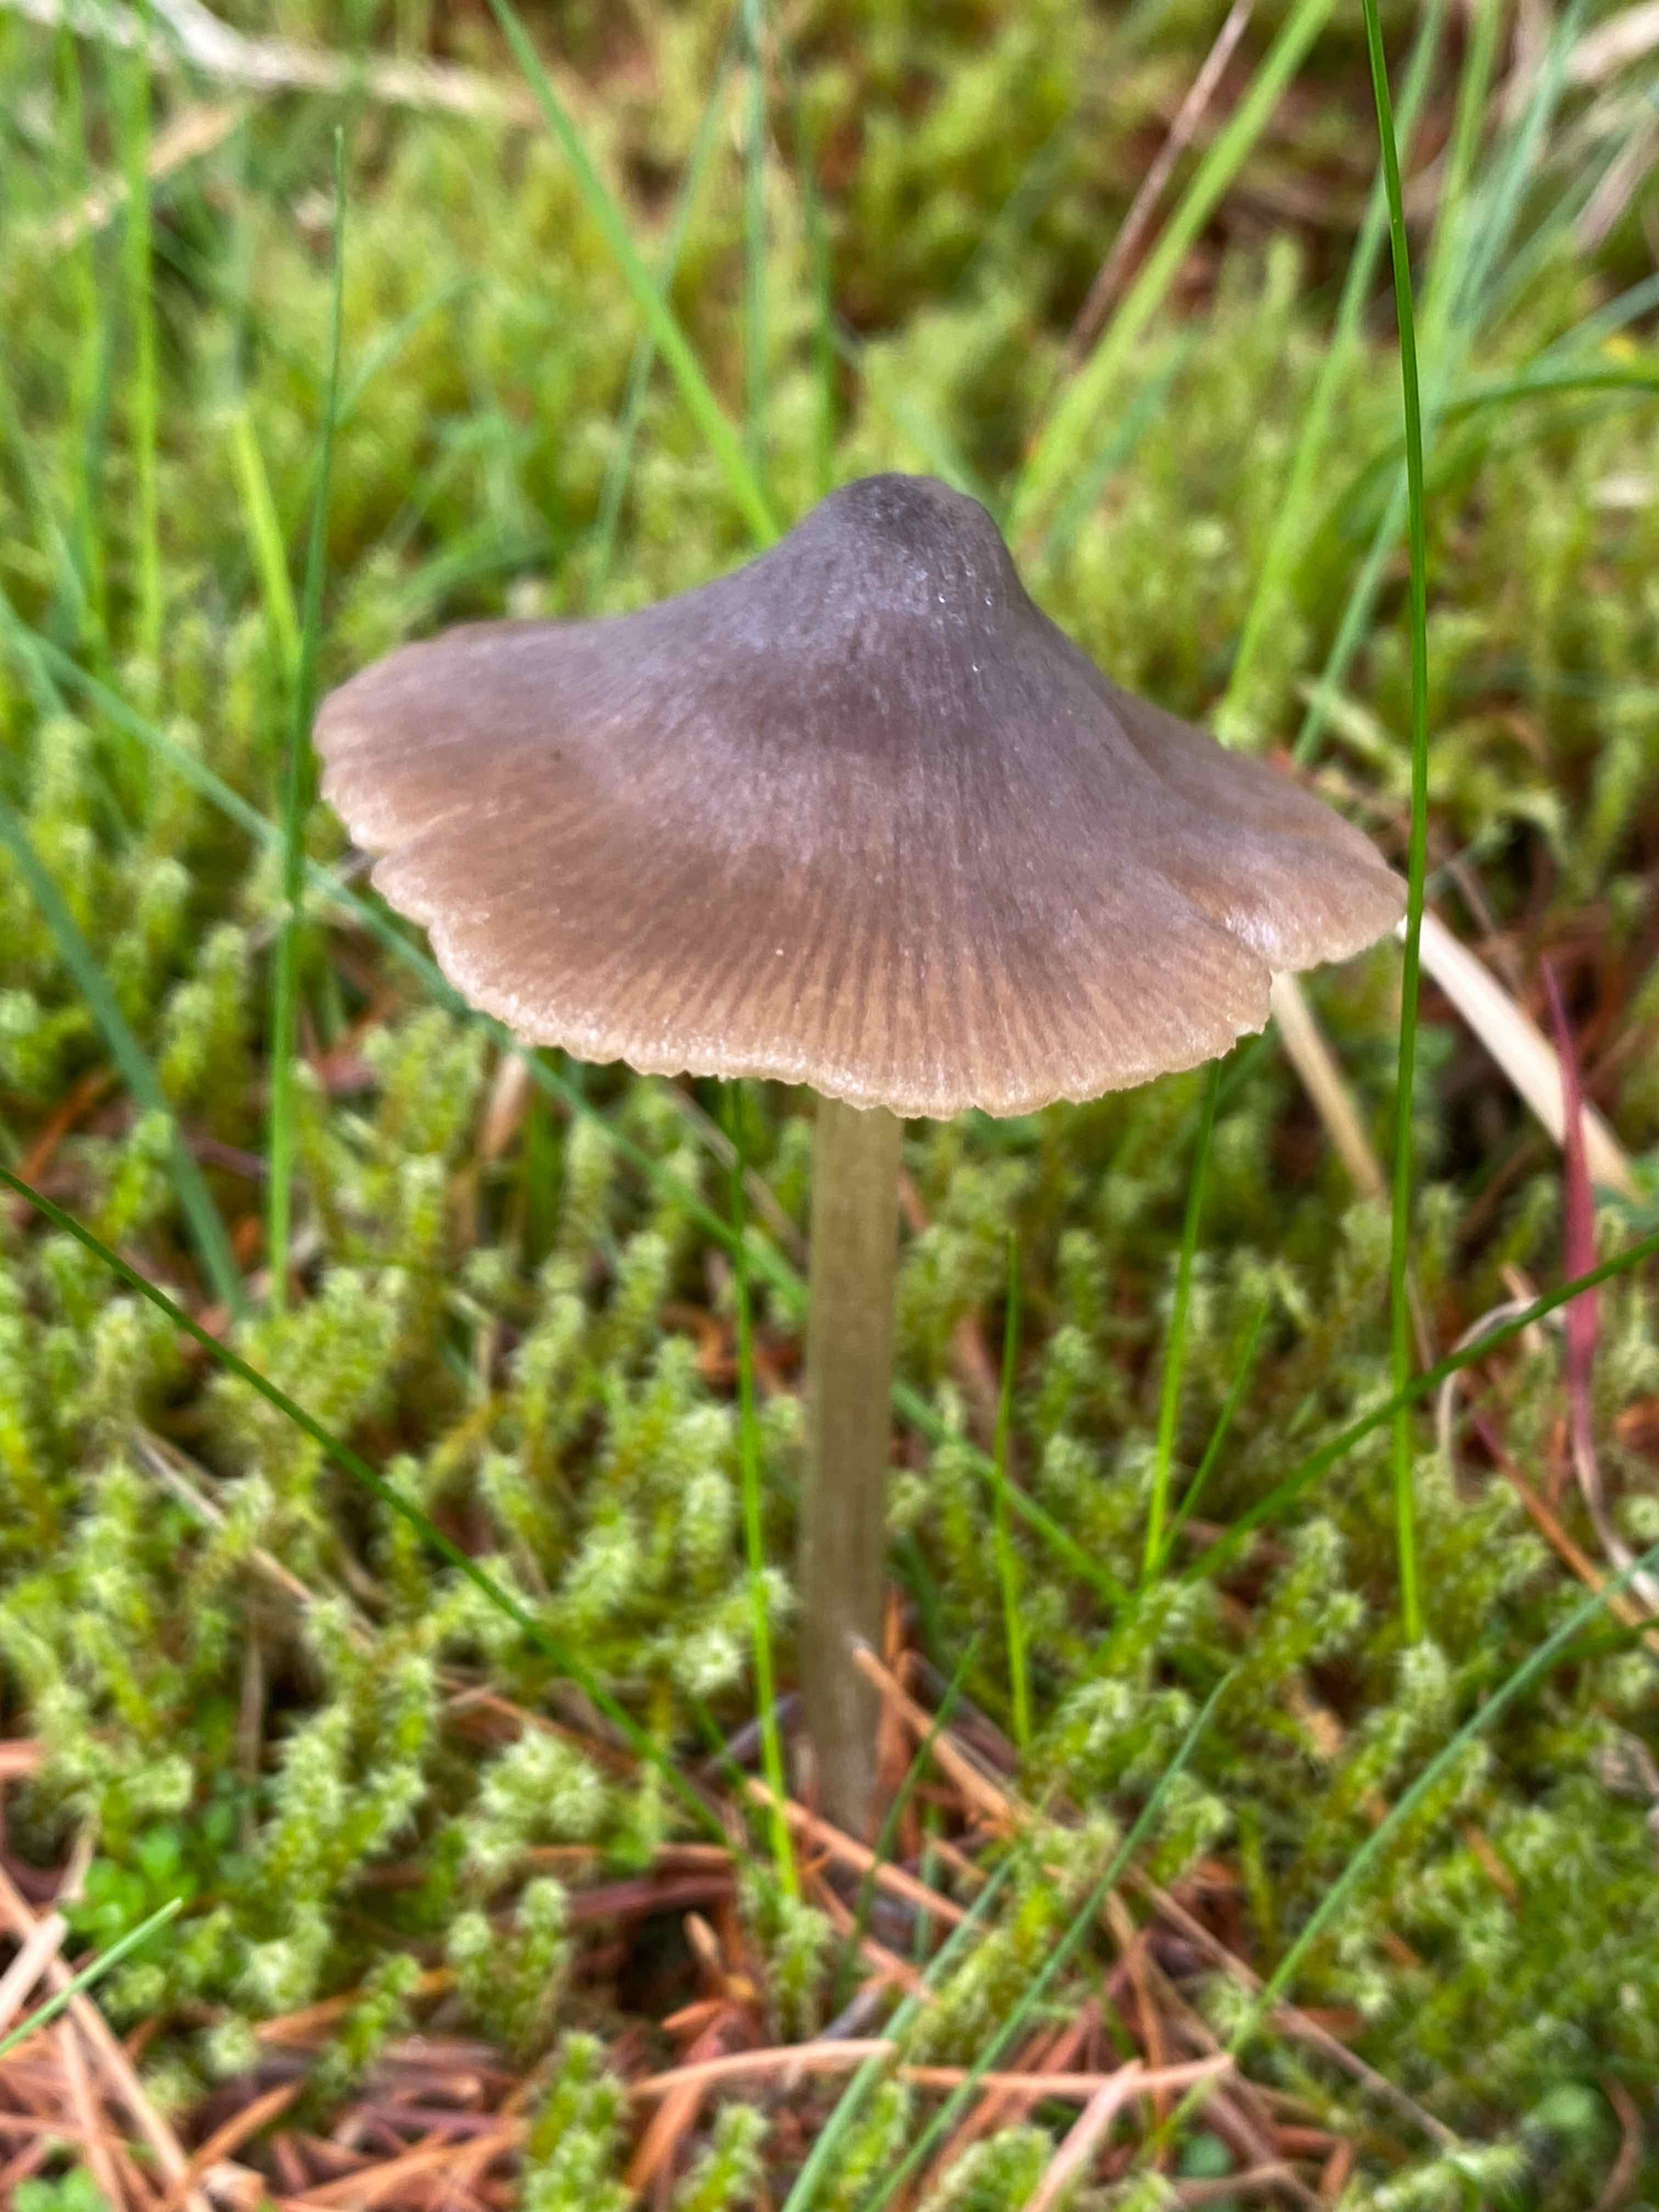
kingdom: Fungi
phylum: Basidiomycota
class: Agaricomycetes
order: Agaricales
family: Entolomataceae
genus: Entoloma
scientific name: Entoloma conferendum
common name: stjernesporet rødblad
